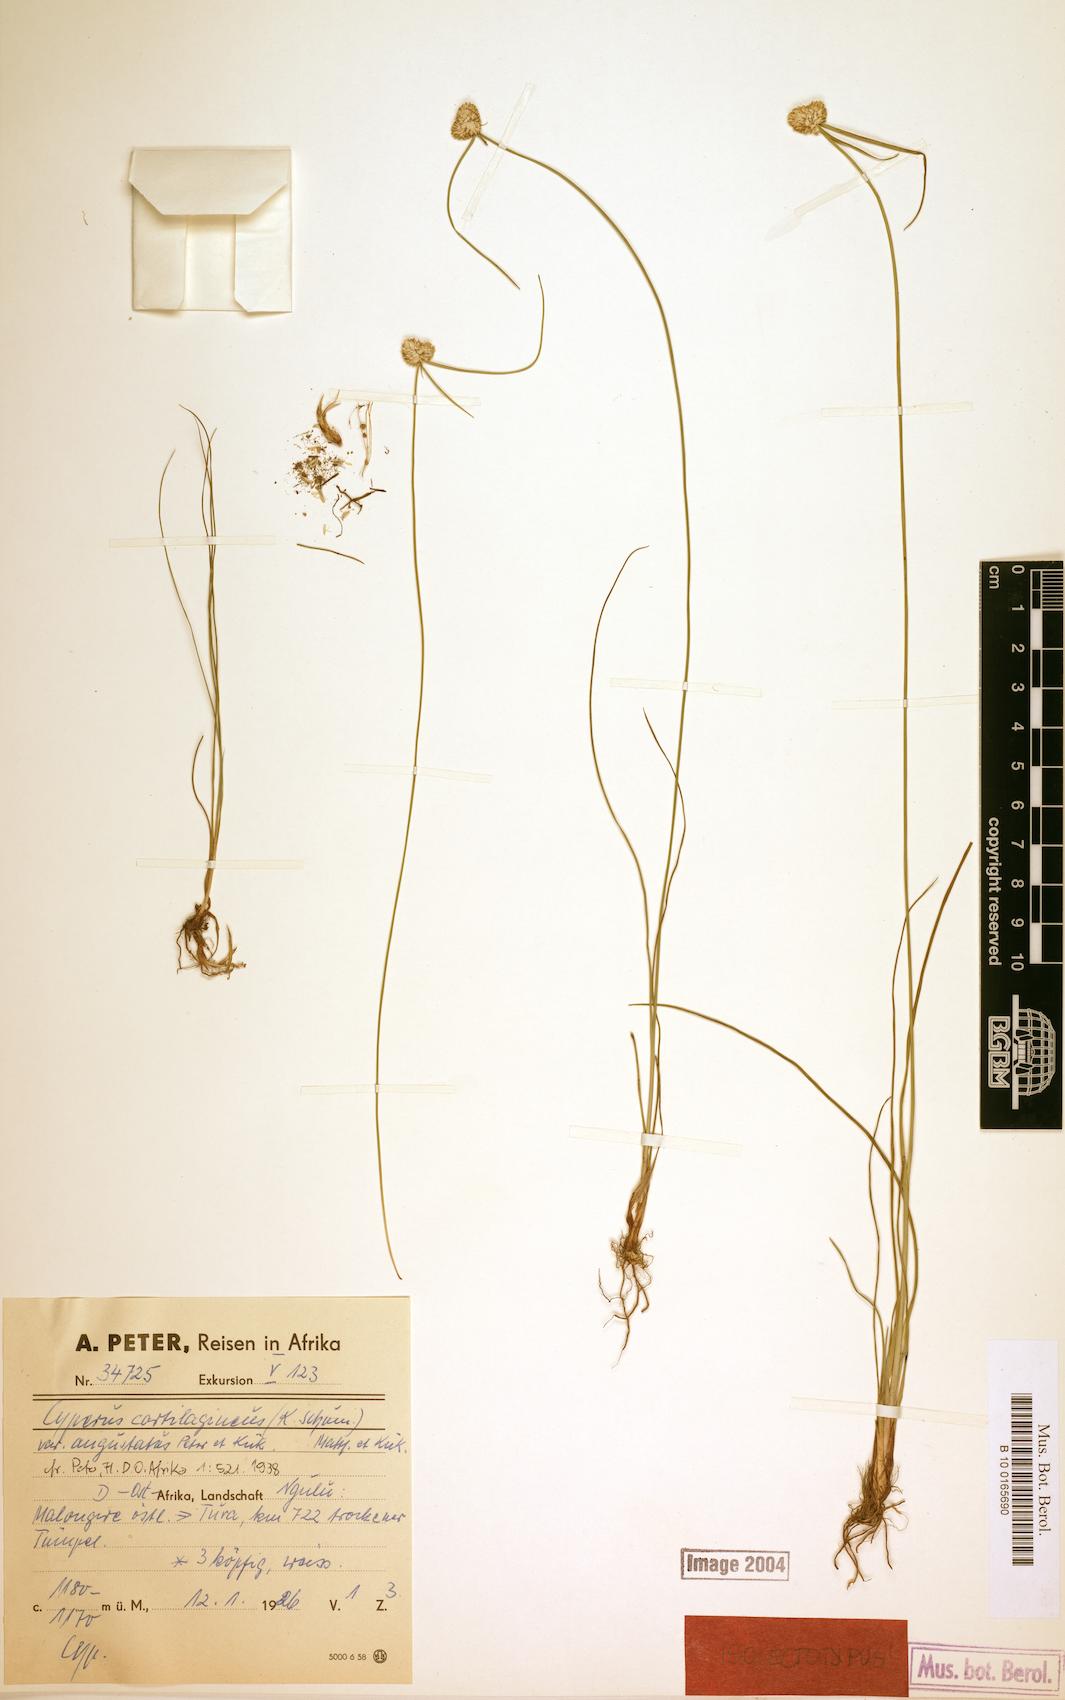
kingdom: Plantae
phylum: Tracheophyta
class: Liliopsida
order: Poales
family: Cyperaceae
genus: Cyperus
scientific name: Cyperus comosipes
